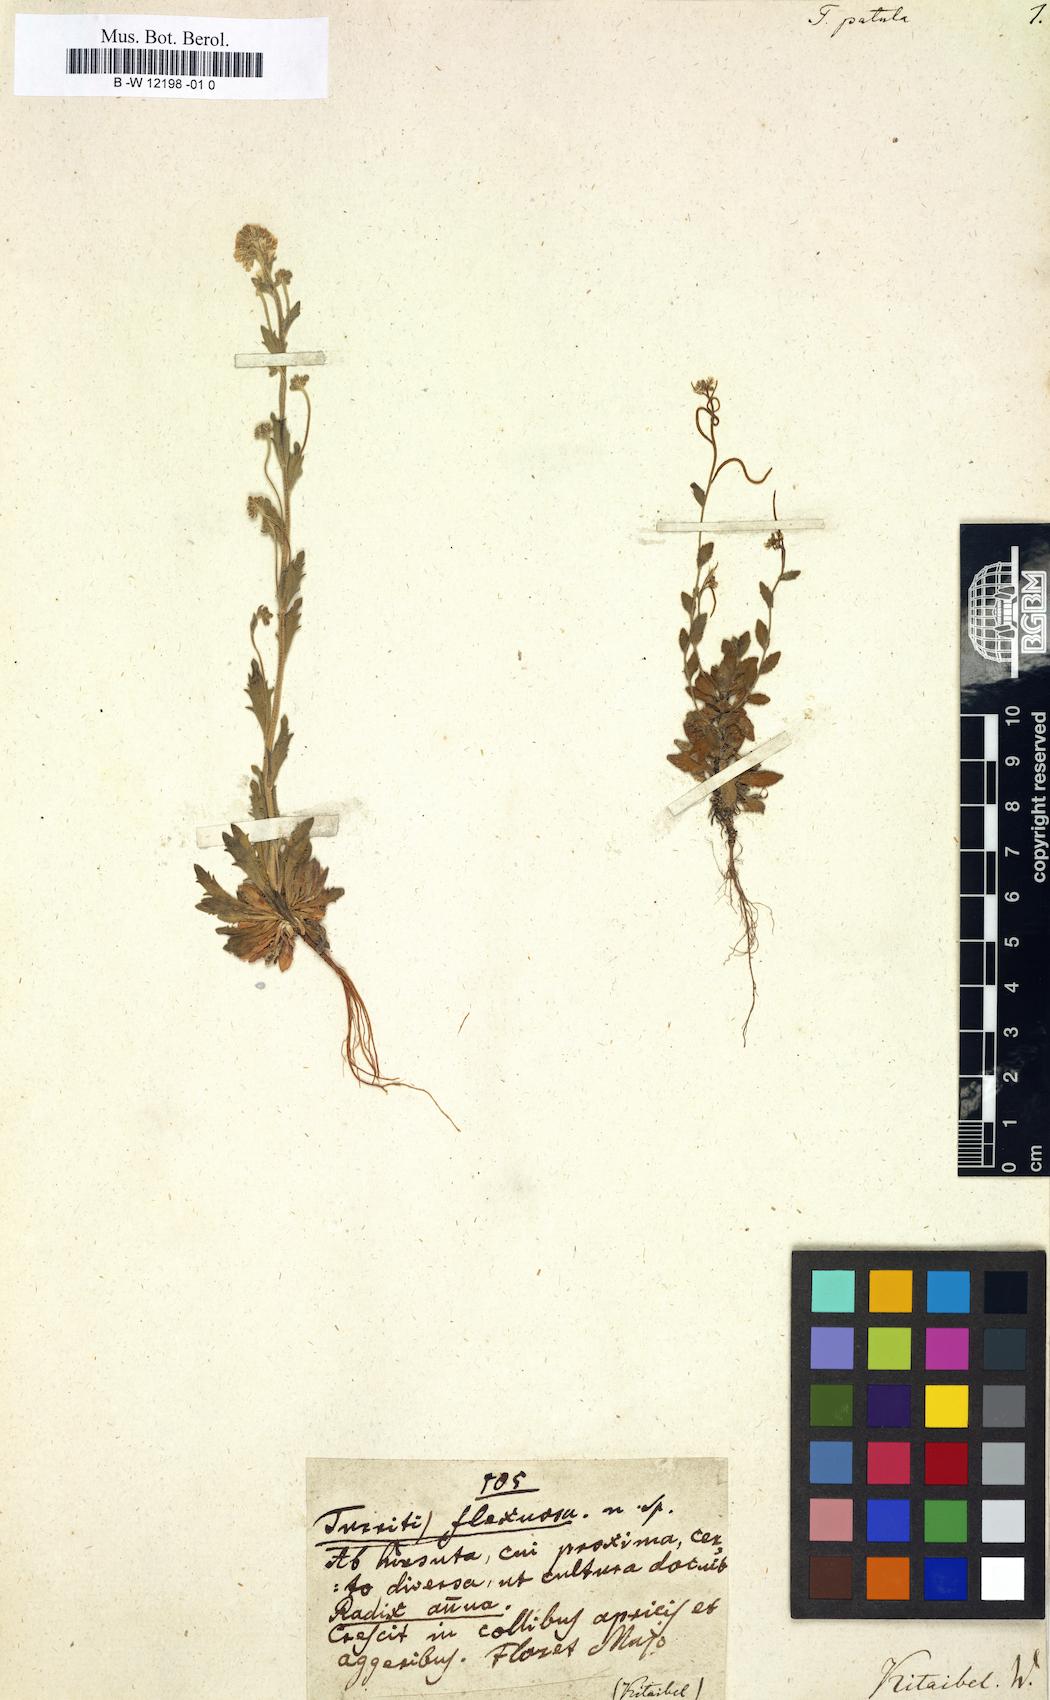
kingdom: Plantae
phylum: Tracheophyta
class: Magnoliopsida
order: Brassicales
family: Brassicaceae
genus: Arabis
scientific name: Arabis auriculata
